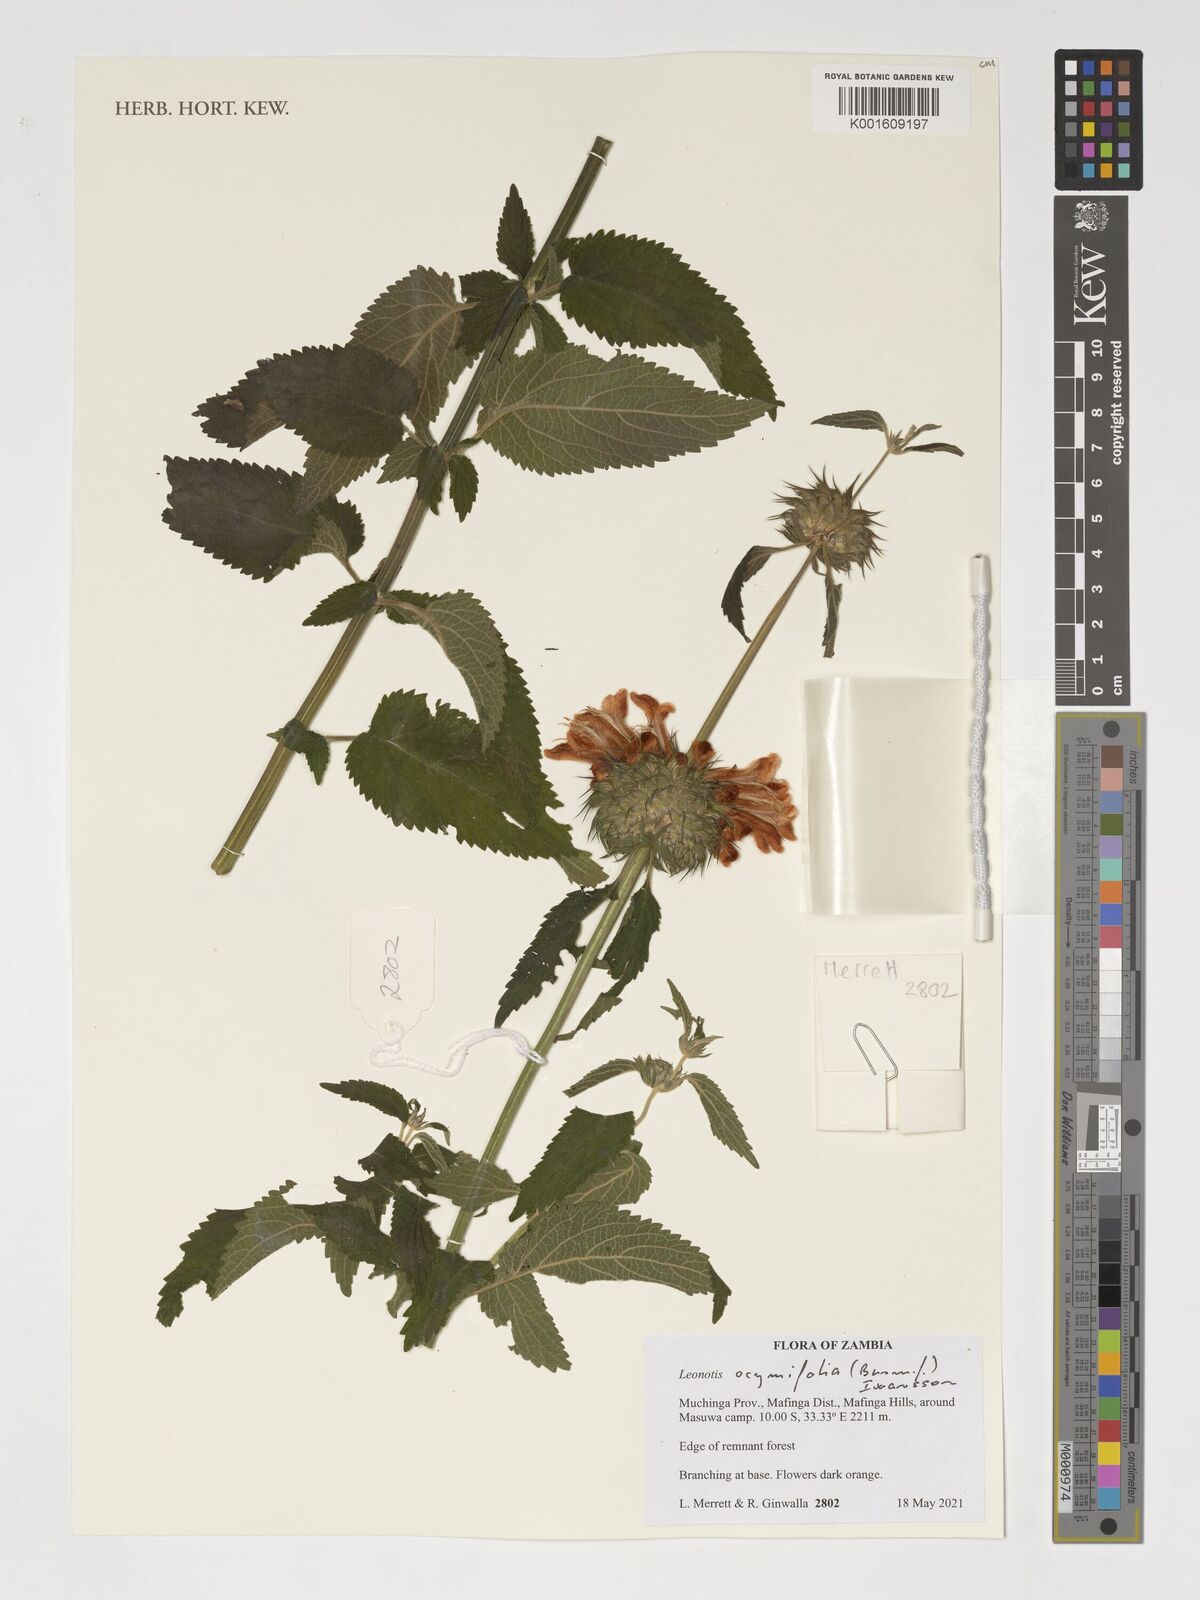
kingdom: Plantae
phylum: Tracheophyta
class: Magnoliopsida
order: Lamiales
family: Lamiaceae
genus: Leonotis
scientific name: Leonotis ocymifolia
